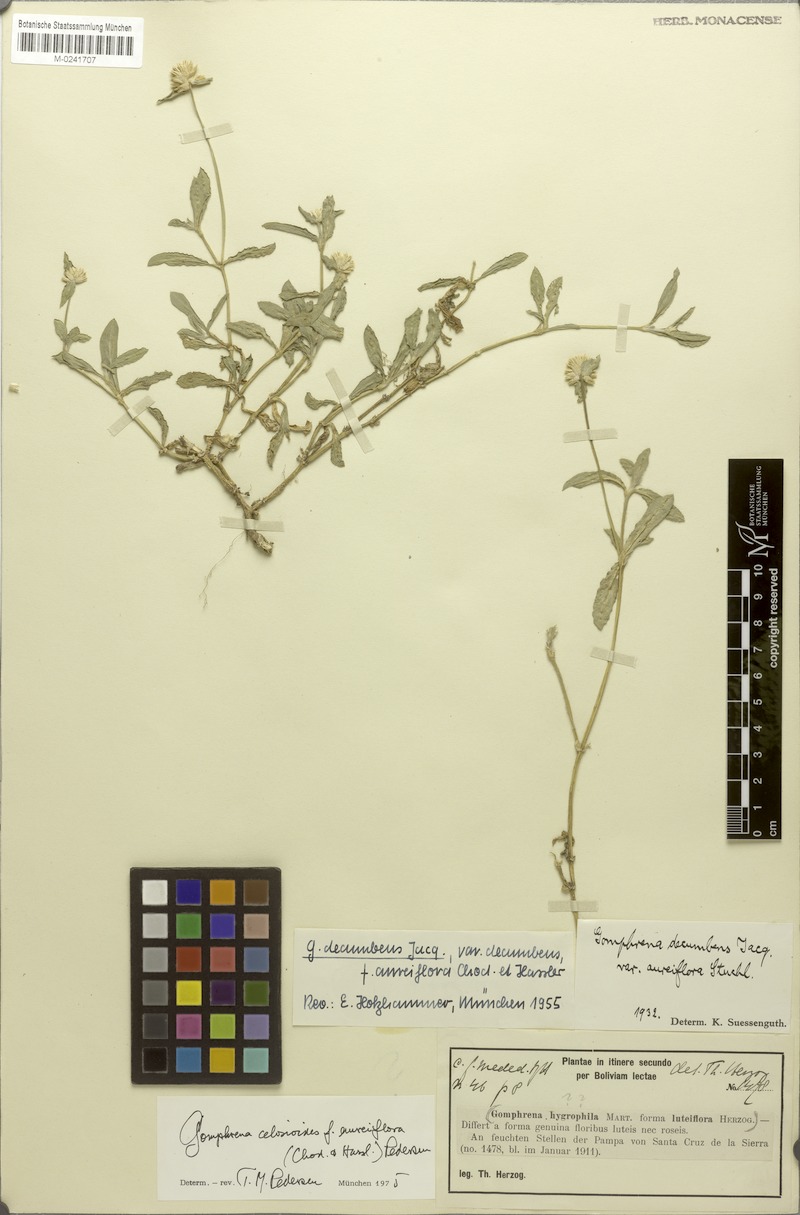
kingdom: Plantae
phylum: Tracheophyta
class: Magnoliopsida
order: Caryophyllales
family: Amaranthaceae
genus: Gomphrena
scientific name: Gomphrena celosioides
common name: Gomphrena-weed
